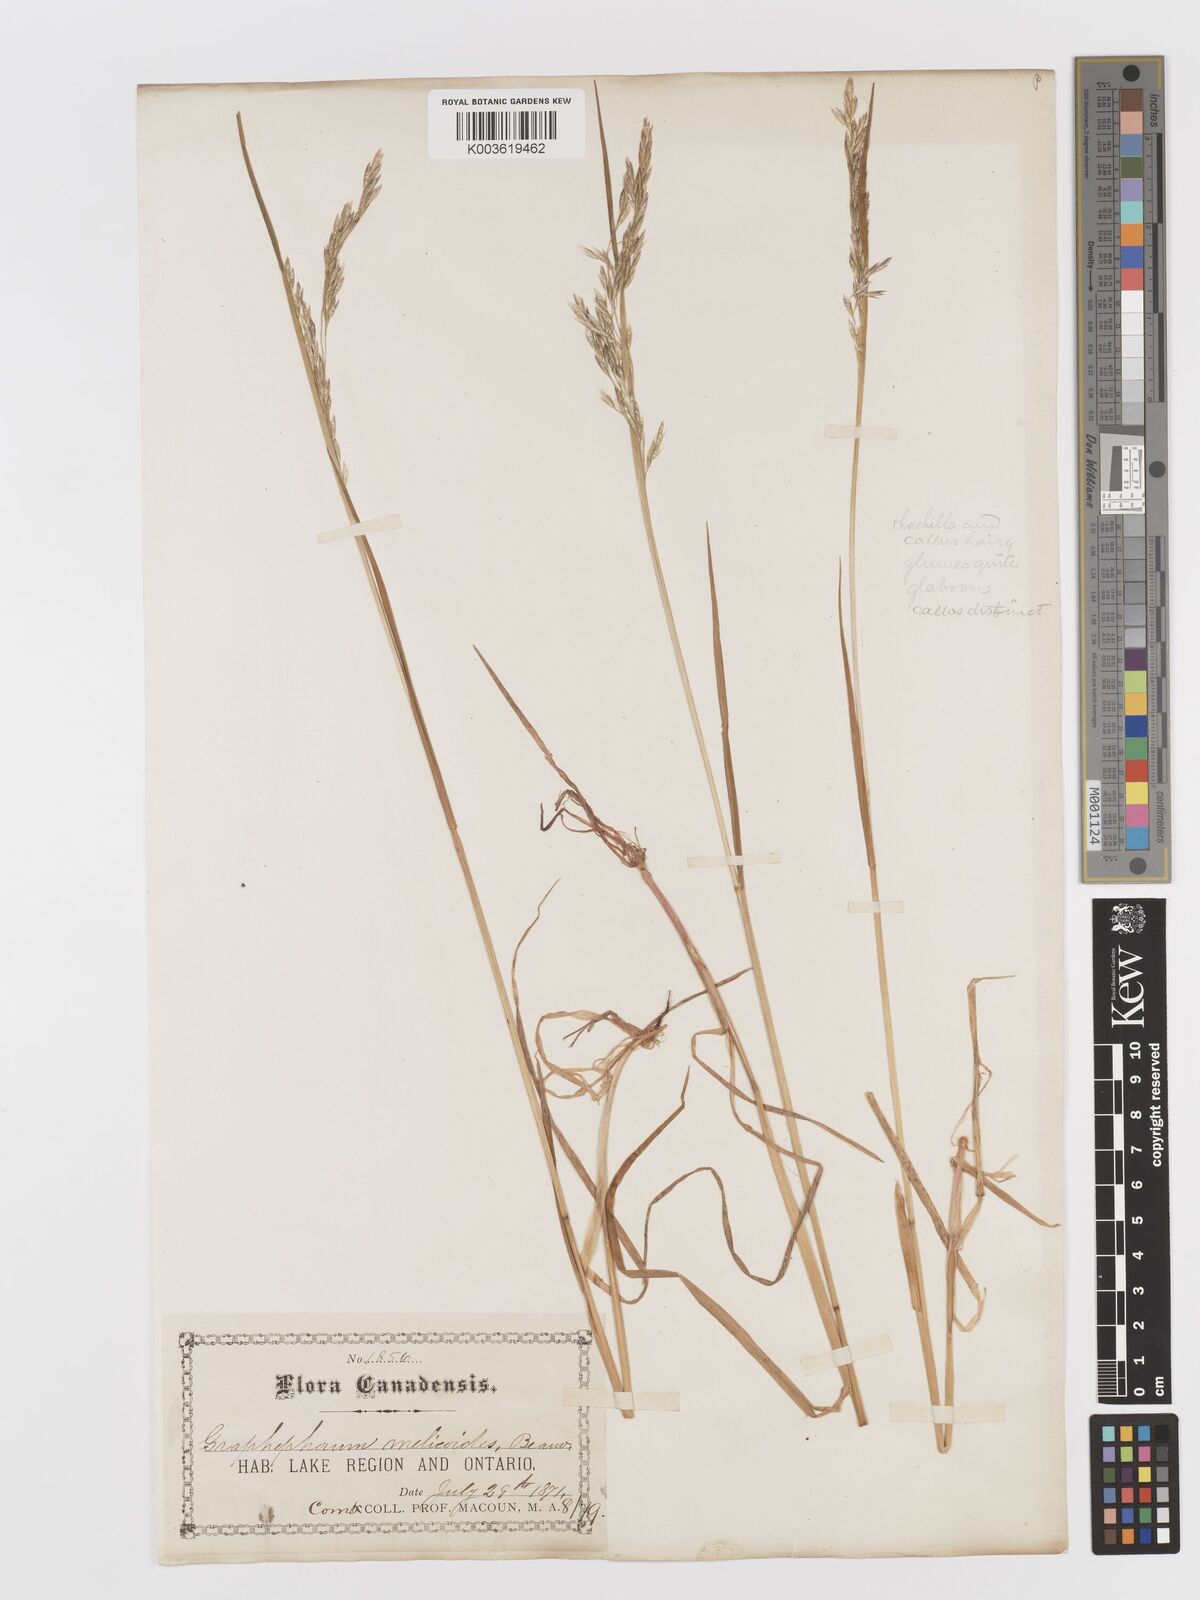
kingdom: Plantae
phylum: Tracheophyta
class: Liliopsida
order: Poales
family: Poaceae
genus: Graphephorum
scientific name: Graphephorum melicoides
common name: False melic
